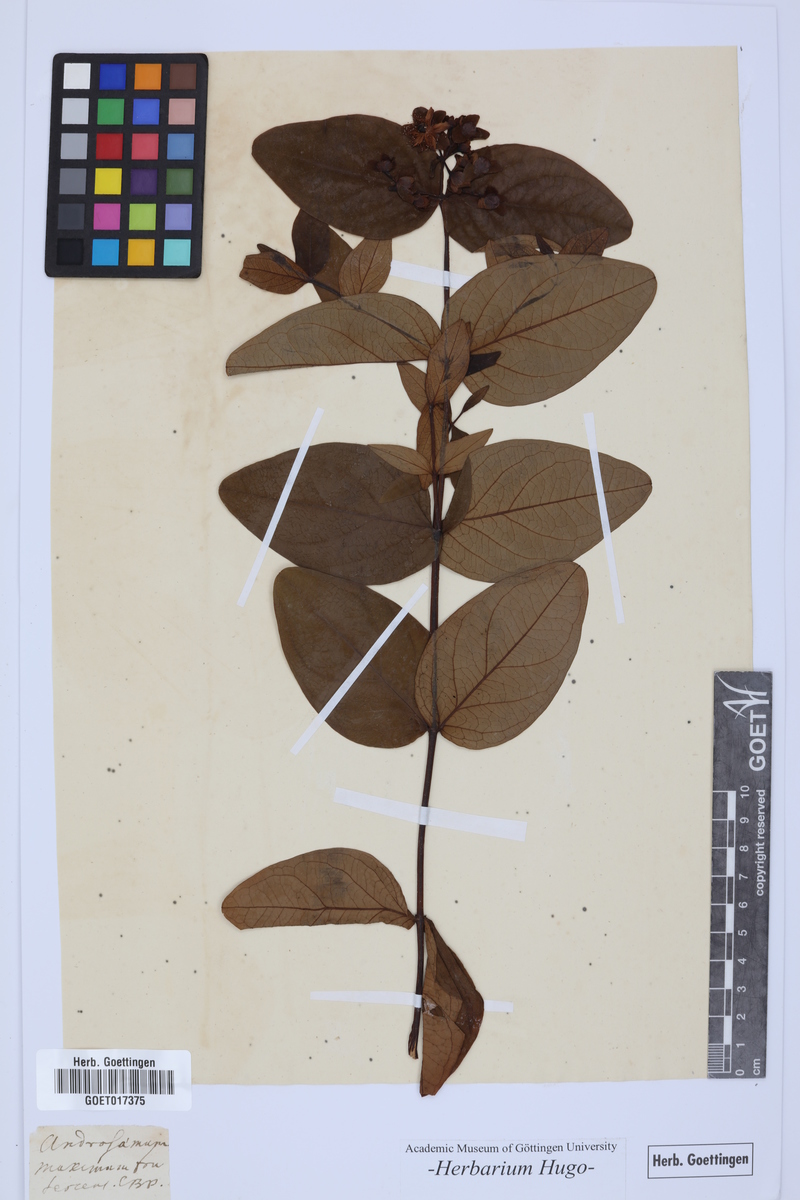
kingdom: Plantae
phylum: Tracheophyta
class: Magnoliopsida
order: Malpighiales
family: Hypericaceae
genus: Hypericum
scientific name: Hypericum androsaemum
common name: Sweet-amber
